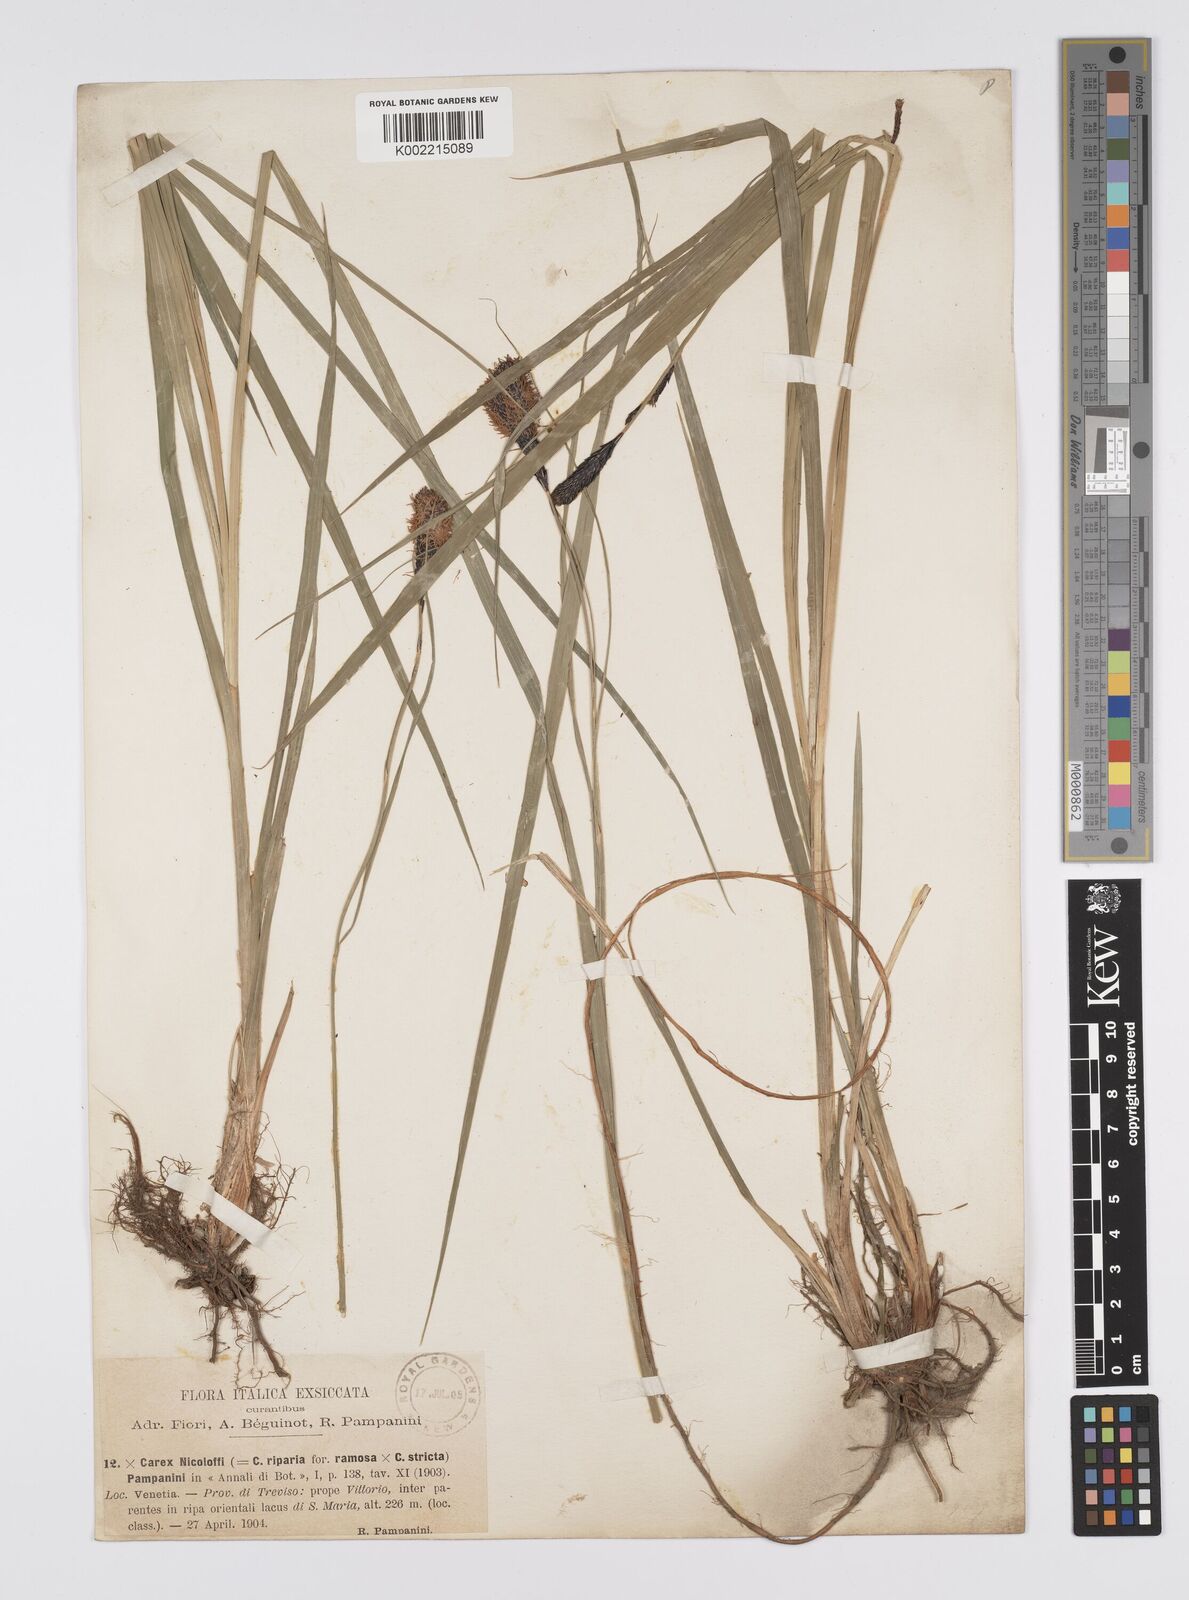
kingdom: Plantae
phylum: Tracheophyta
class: Liliopsida
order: Poales
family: Cyperaceae
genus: Carex
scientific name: Carex evoluta
